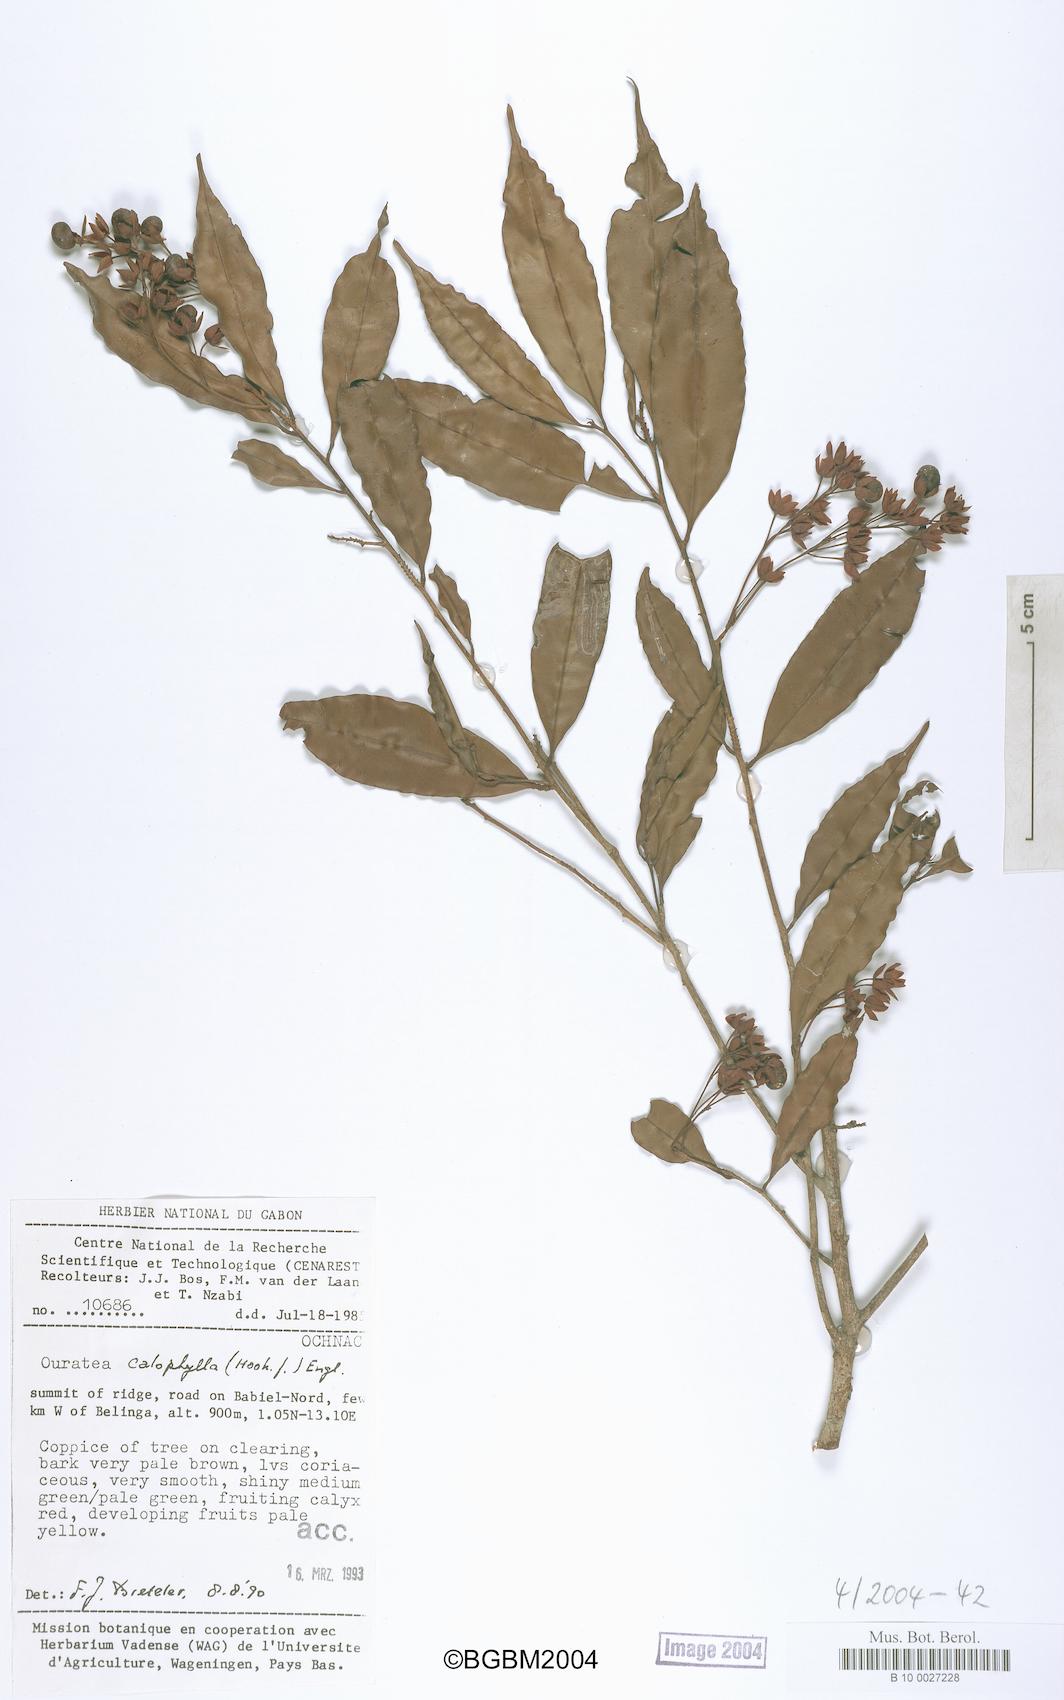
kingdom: Plantae
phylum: Tracheophyta
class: Magnoliopsida
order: Malpighiales
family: Ochnaceae
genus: Rhabdophyllum
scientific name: Rhabdophyllum calophyllum
